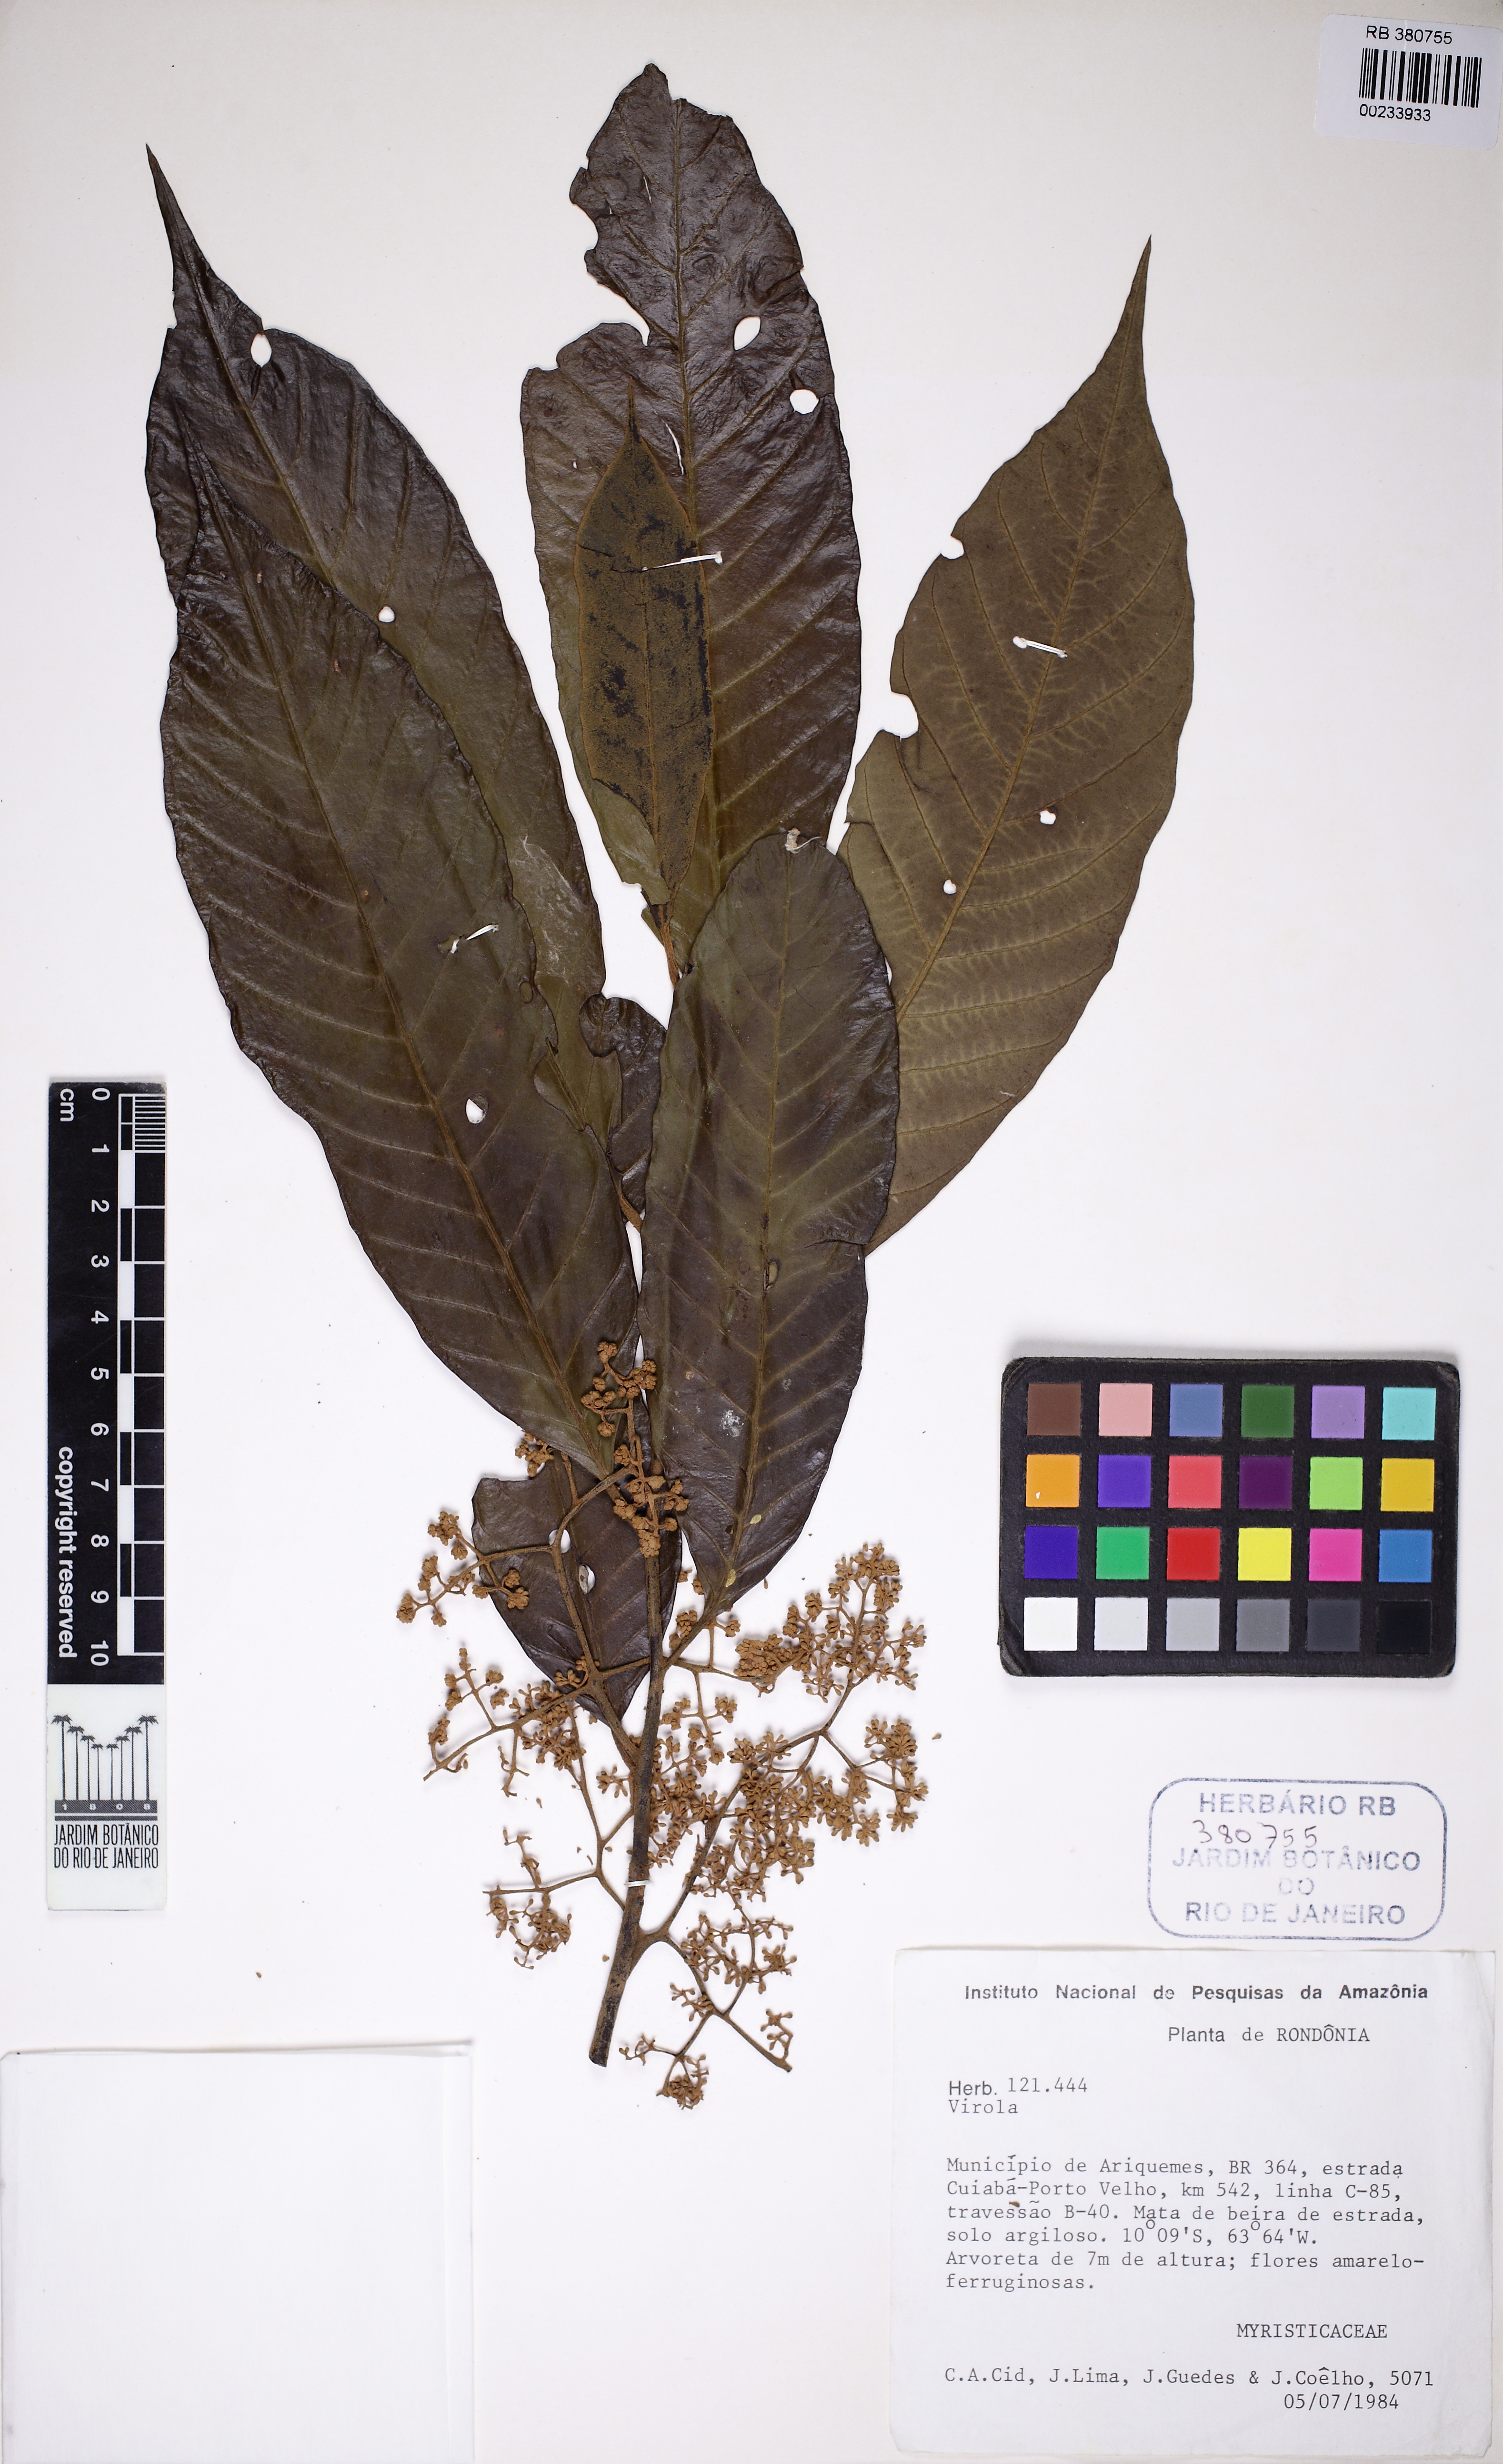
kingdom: Plantae
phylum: Tracheophyta
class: Magnoliopsida
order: Magnoliales
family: Myristicaceae
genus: Virola
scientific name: Virola
